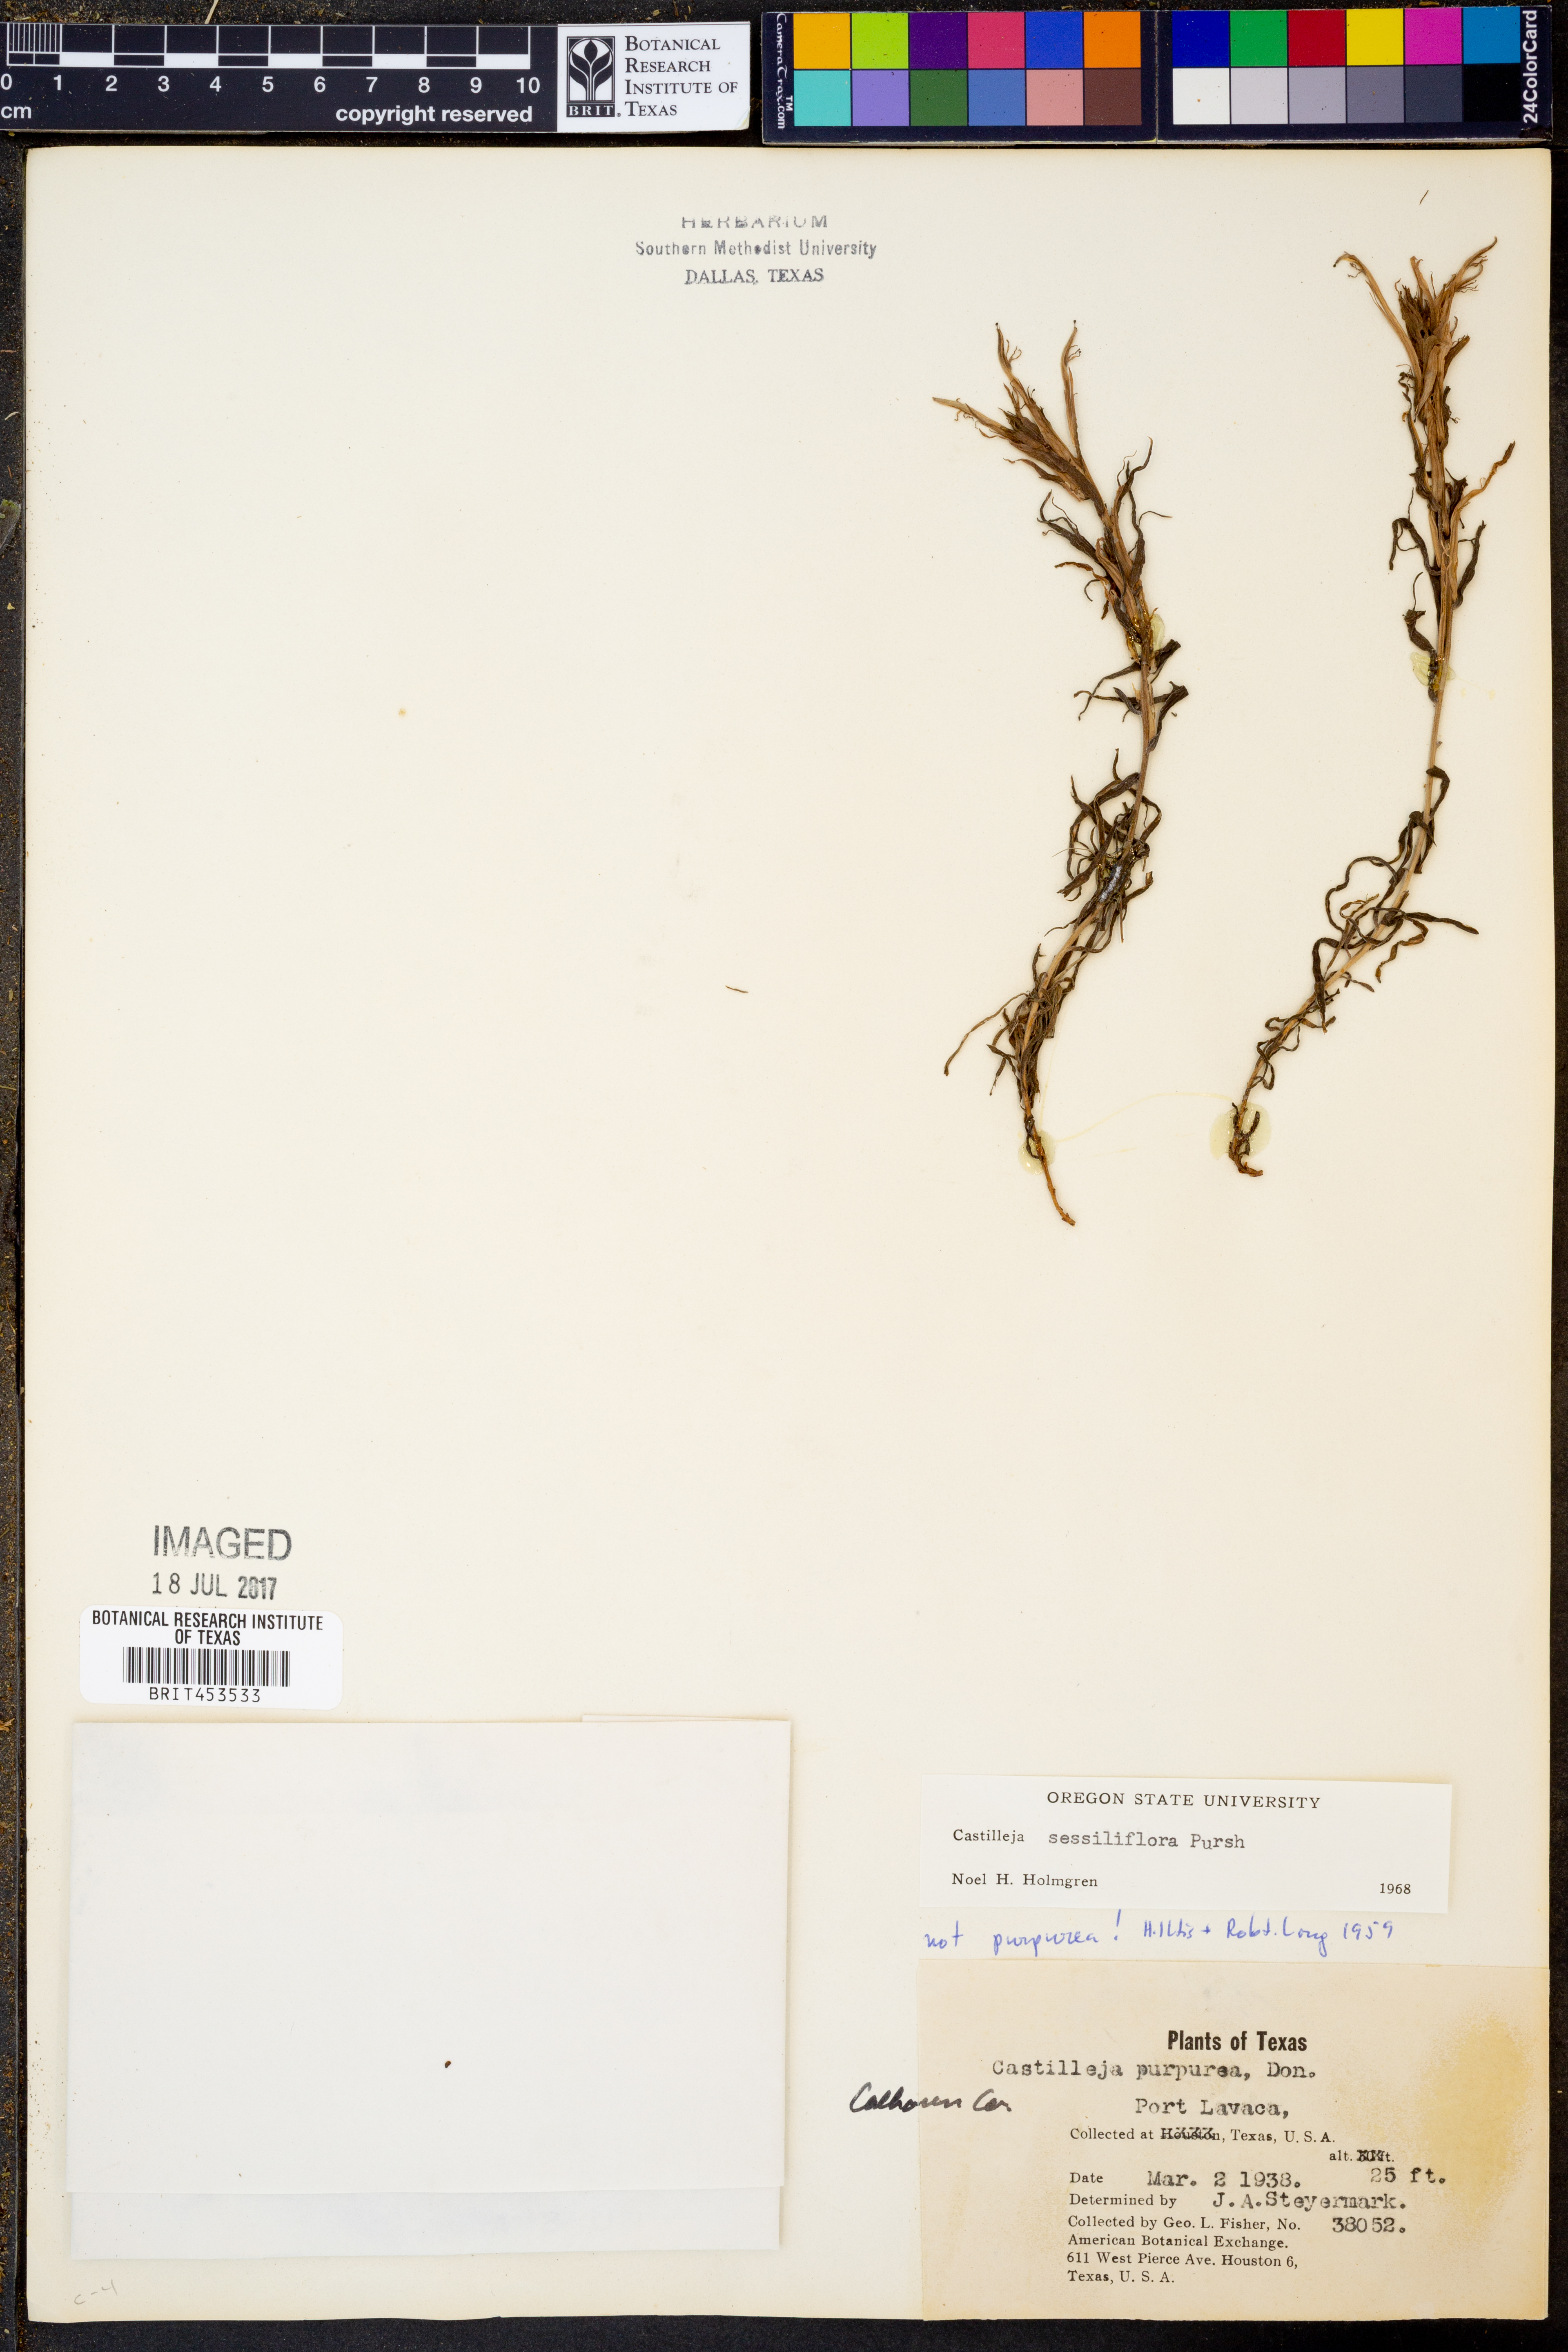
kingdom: Plantae
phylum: Tracheophyta
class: Magnoliopsida
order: Lamiales
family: Orobanchaceae
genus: Castilleja
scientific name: Castilleja purpurea
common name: Plains paintbrush
